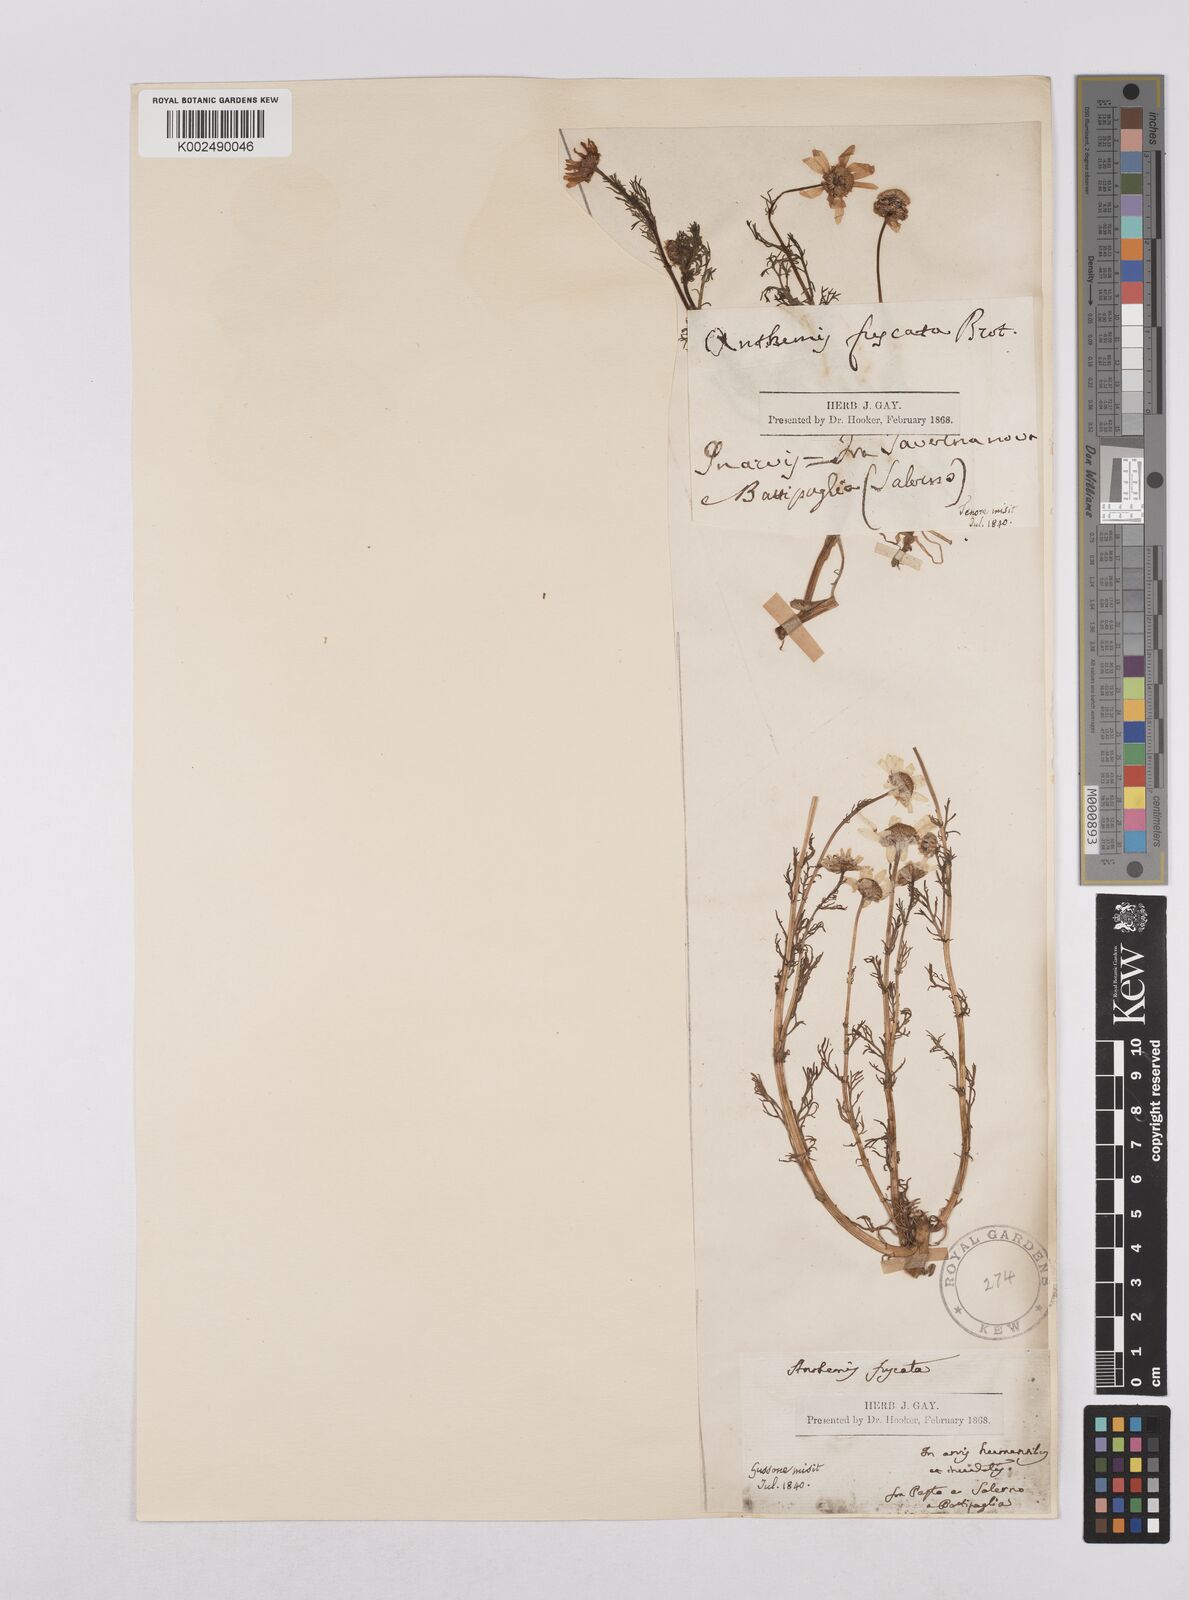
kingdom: Plantae
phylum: Tracheophyta
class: Magnoliopsida
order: Asterales
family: Asteraceae
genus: Chamaemelum
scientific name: Chamaemelum fuscatum
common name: Chamomile
